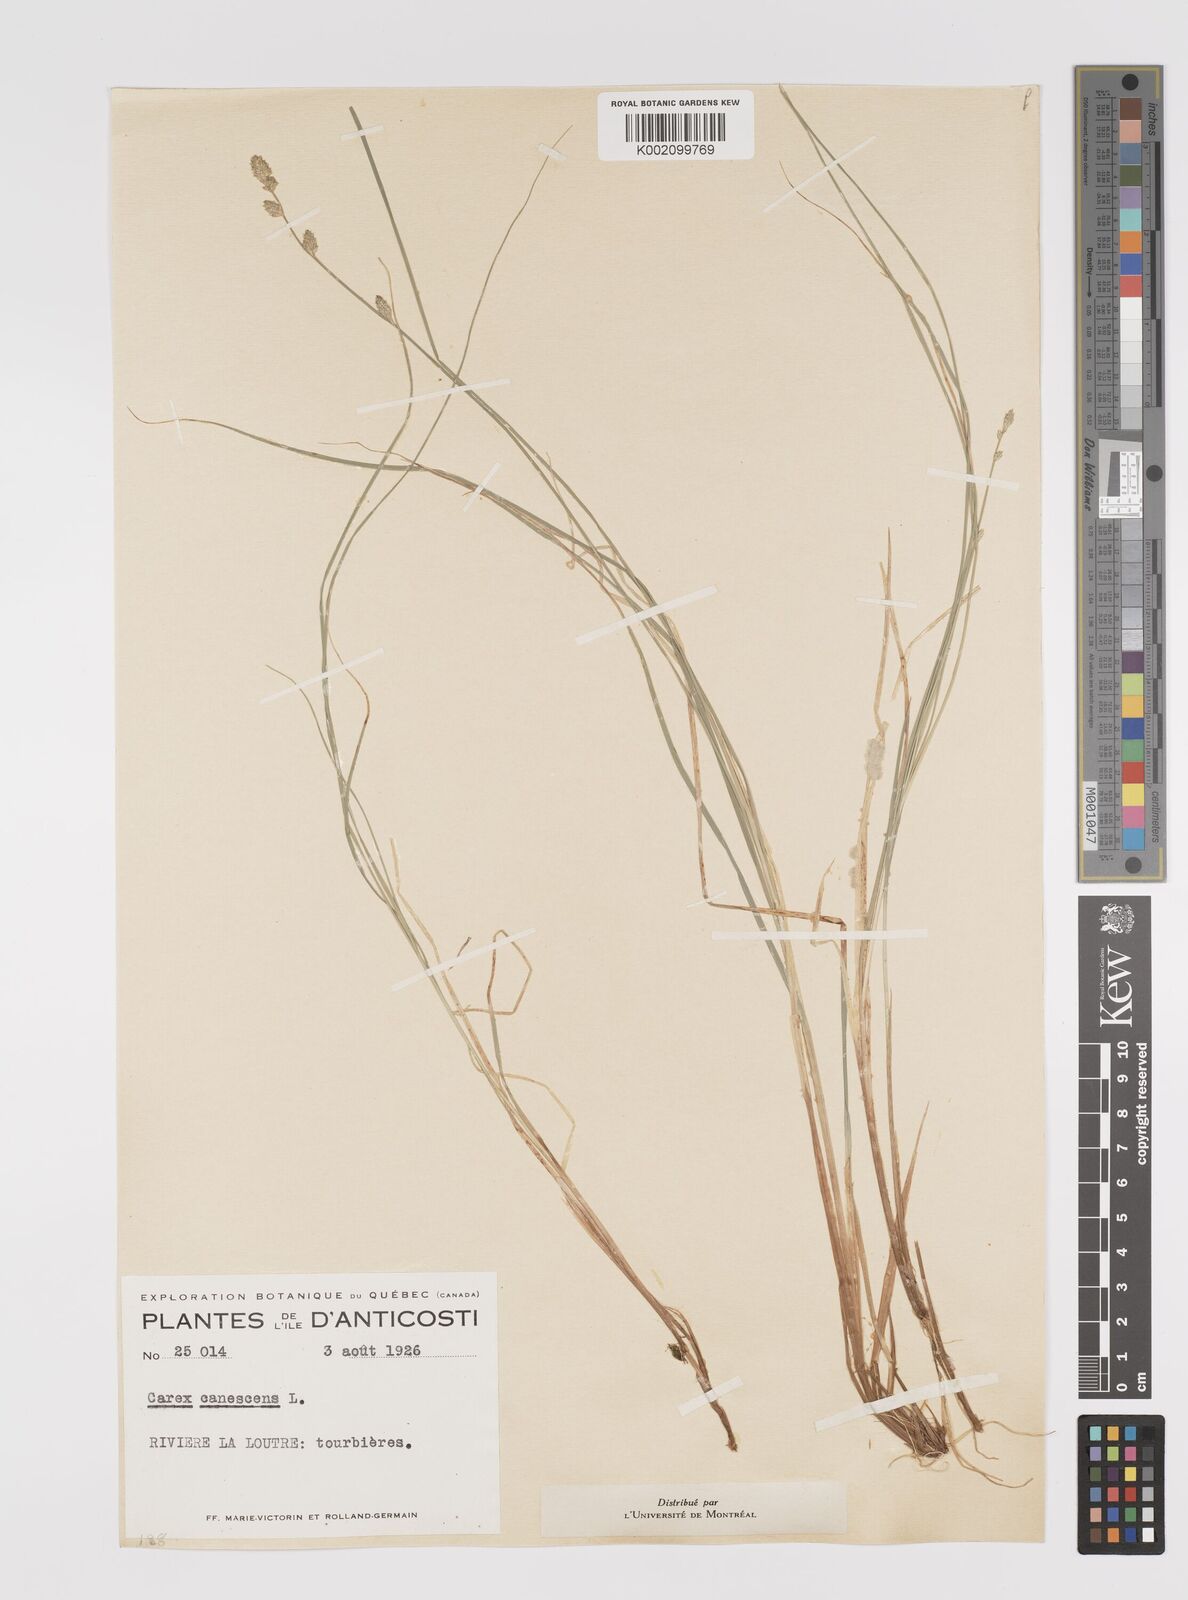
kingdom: Plantae
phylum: Tracheophyta
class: Liliopsida
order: Poales
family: Cyperaceae
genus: Carex
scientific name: Carex curta
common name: White sedge
